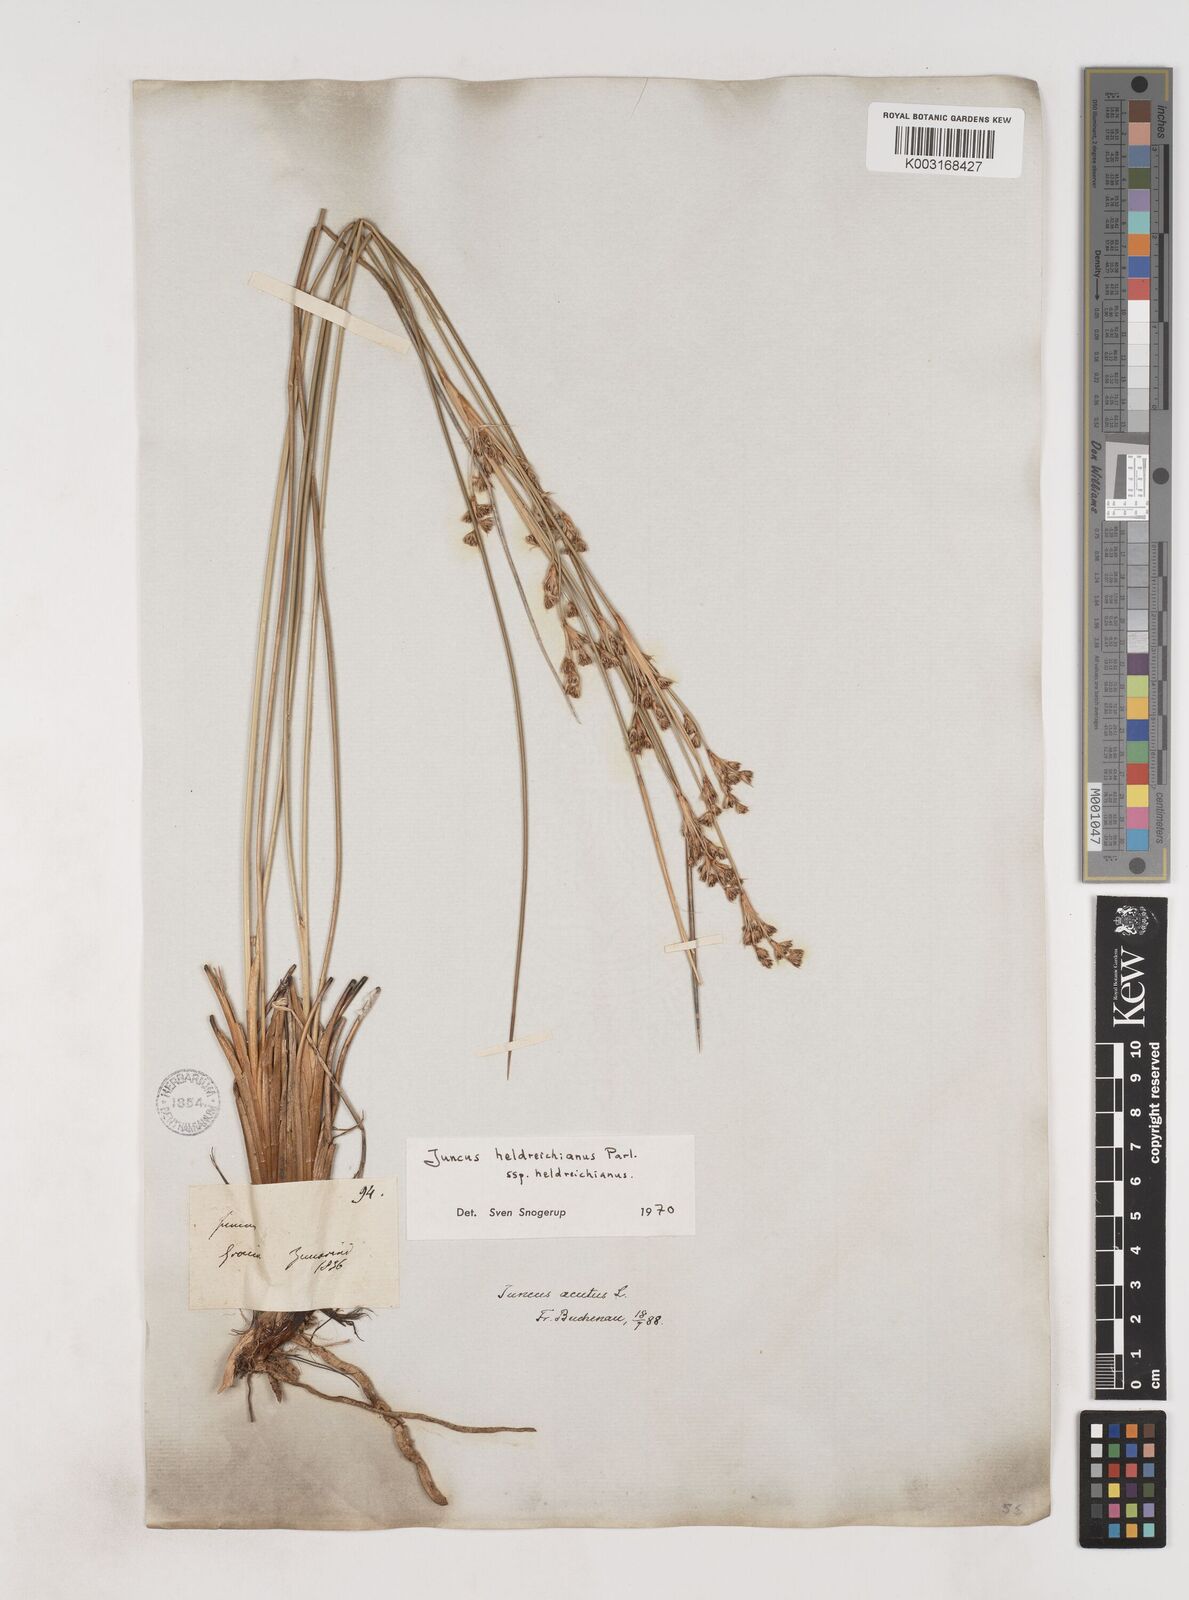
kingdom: Plantae
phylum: Tracheophyta
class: Liliopsida
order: Poales
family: Juncaceae
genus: Juncus
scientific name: Juncus heldreichianus
